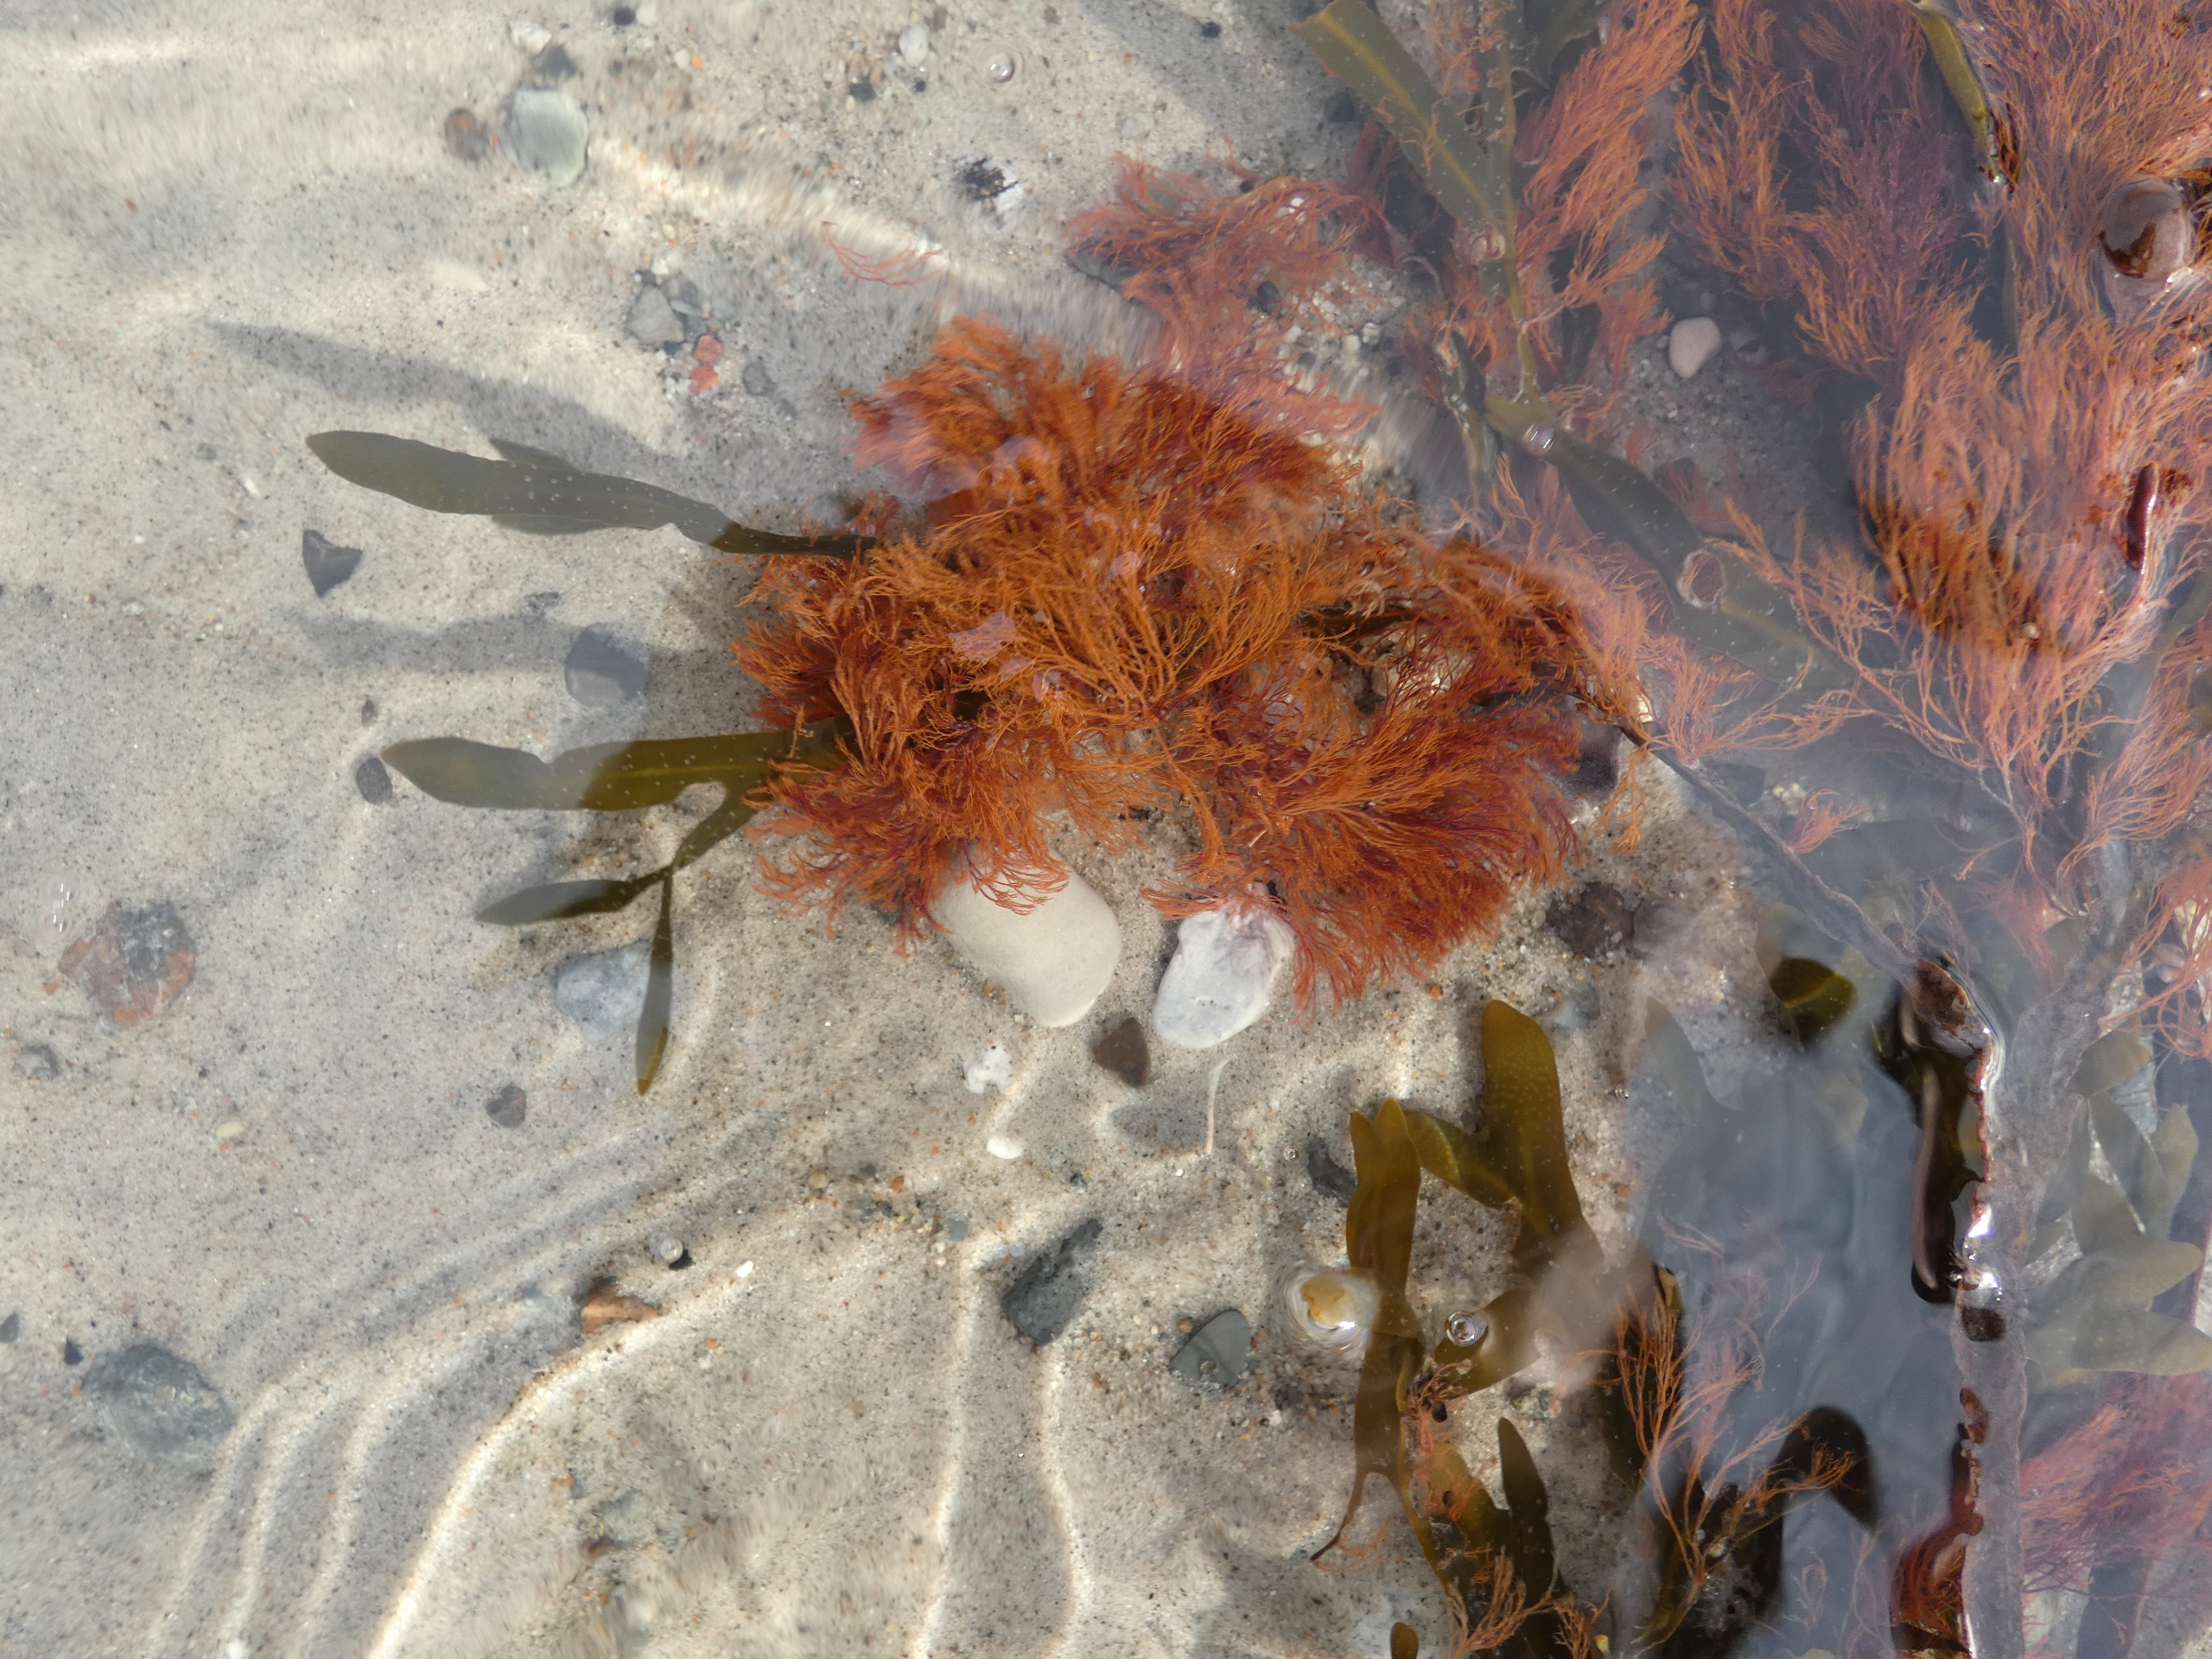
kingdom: Chromista
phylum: Ochrophyta
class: Phaeophyceae
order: Fucales
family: Fucaceae
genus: Fucus
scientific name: Fucus vesiculosus
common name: Blæretang
